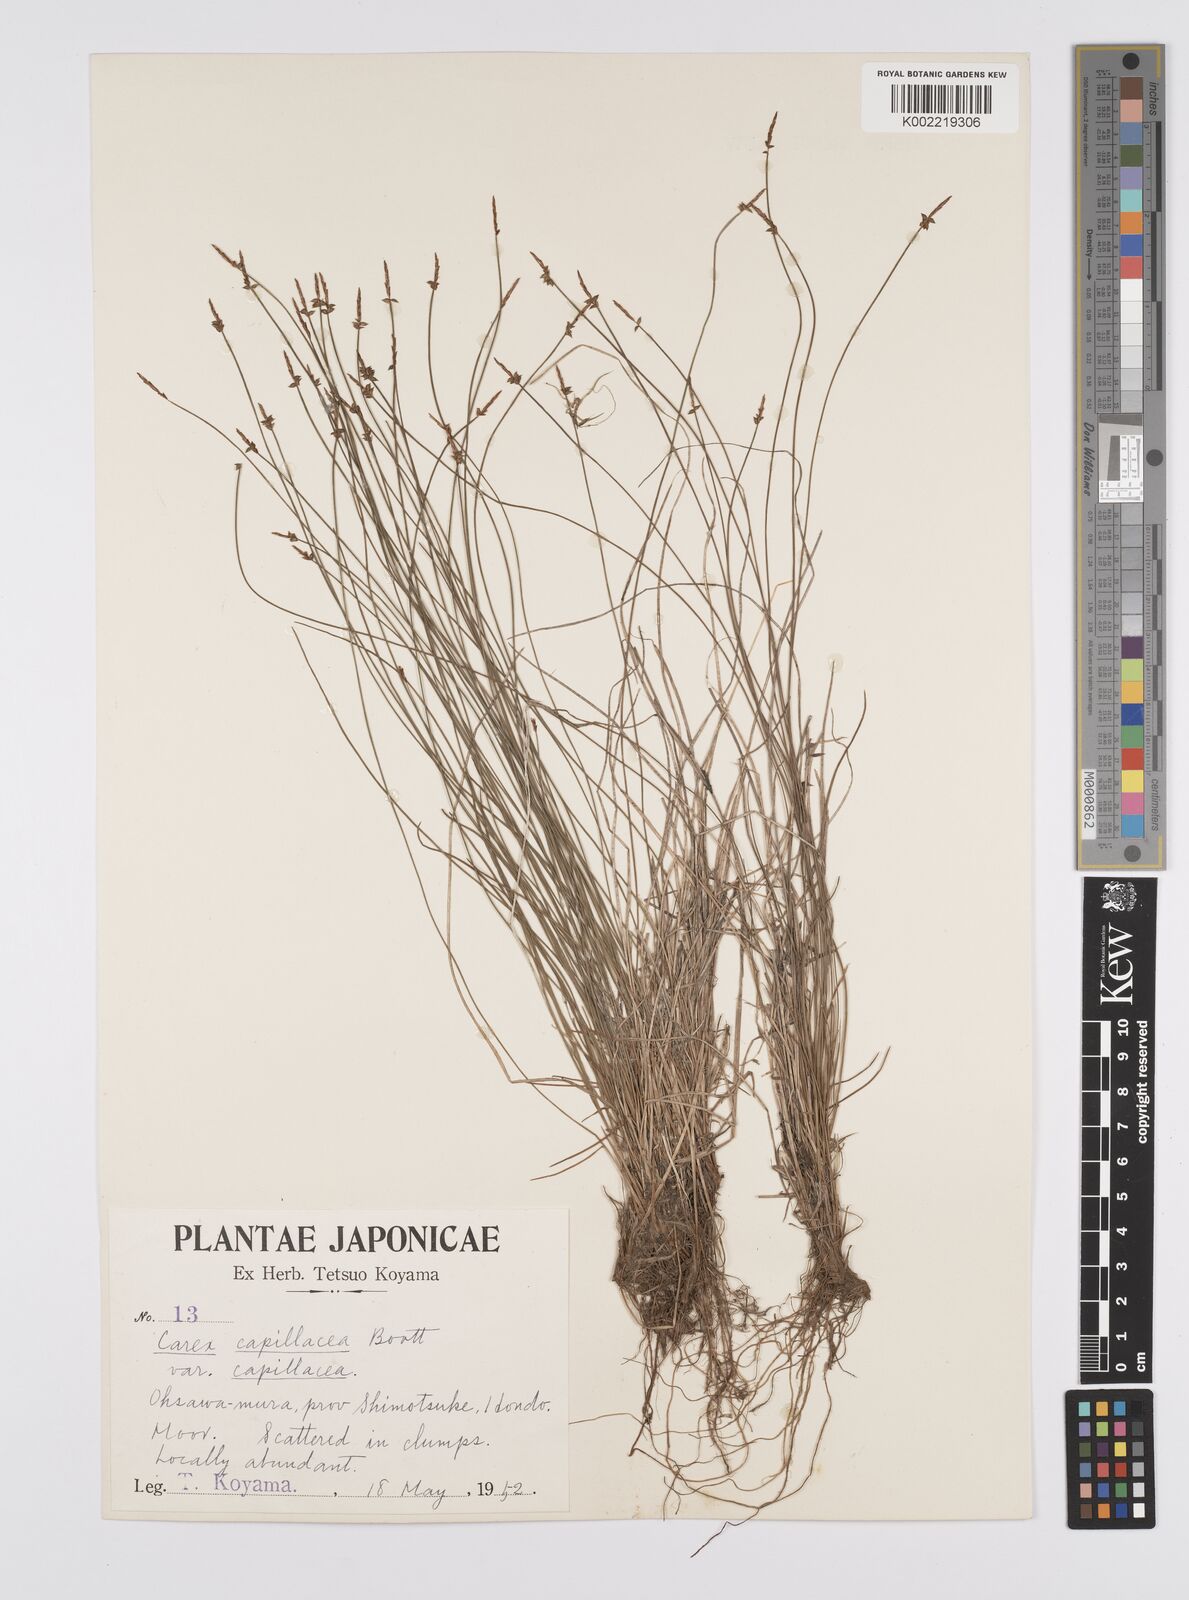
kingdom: Plantae
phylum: Tracheophyta
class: Liliopsida
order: Poales
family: Cyperaceae
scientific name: Cyperaceae
